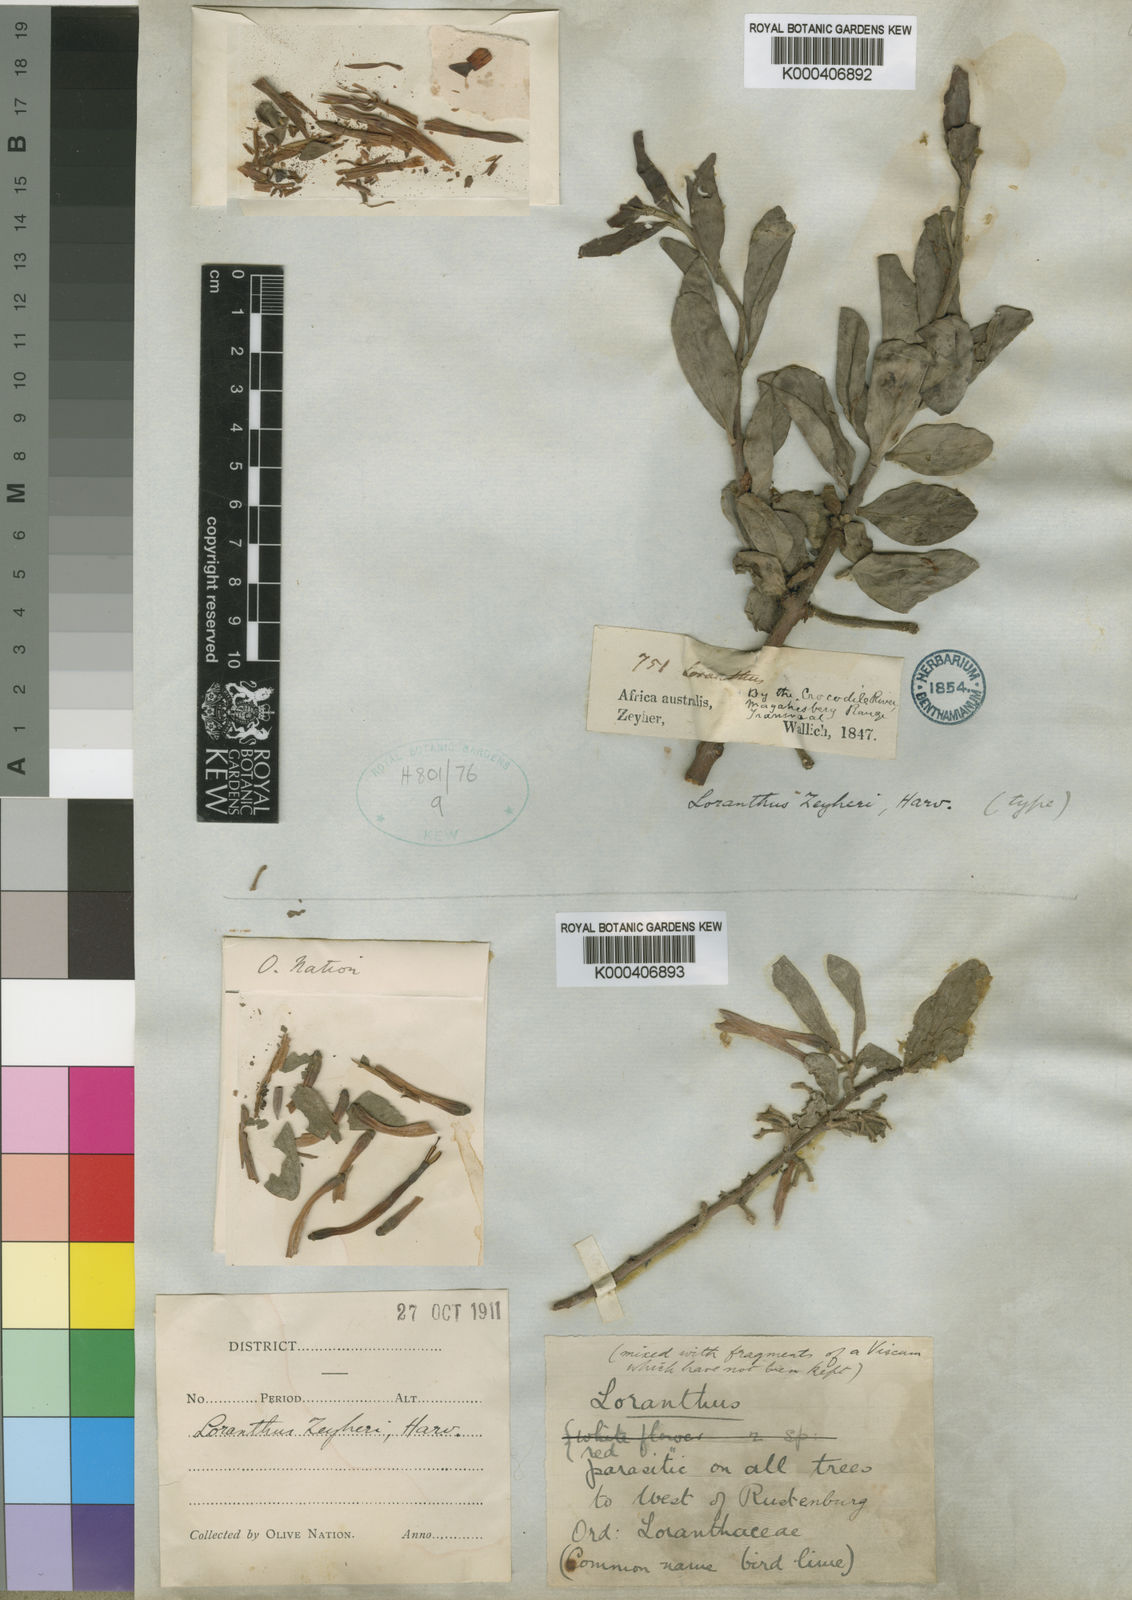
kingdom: Plantae
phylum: Tracheophyta
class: Magnoliopsida
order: Santalales
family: Loranthaceae
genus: Agelanthus
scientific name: Agelanthus natalitius
